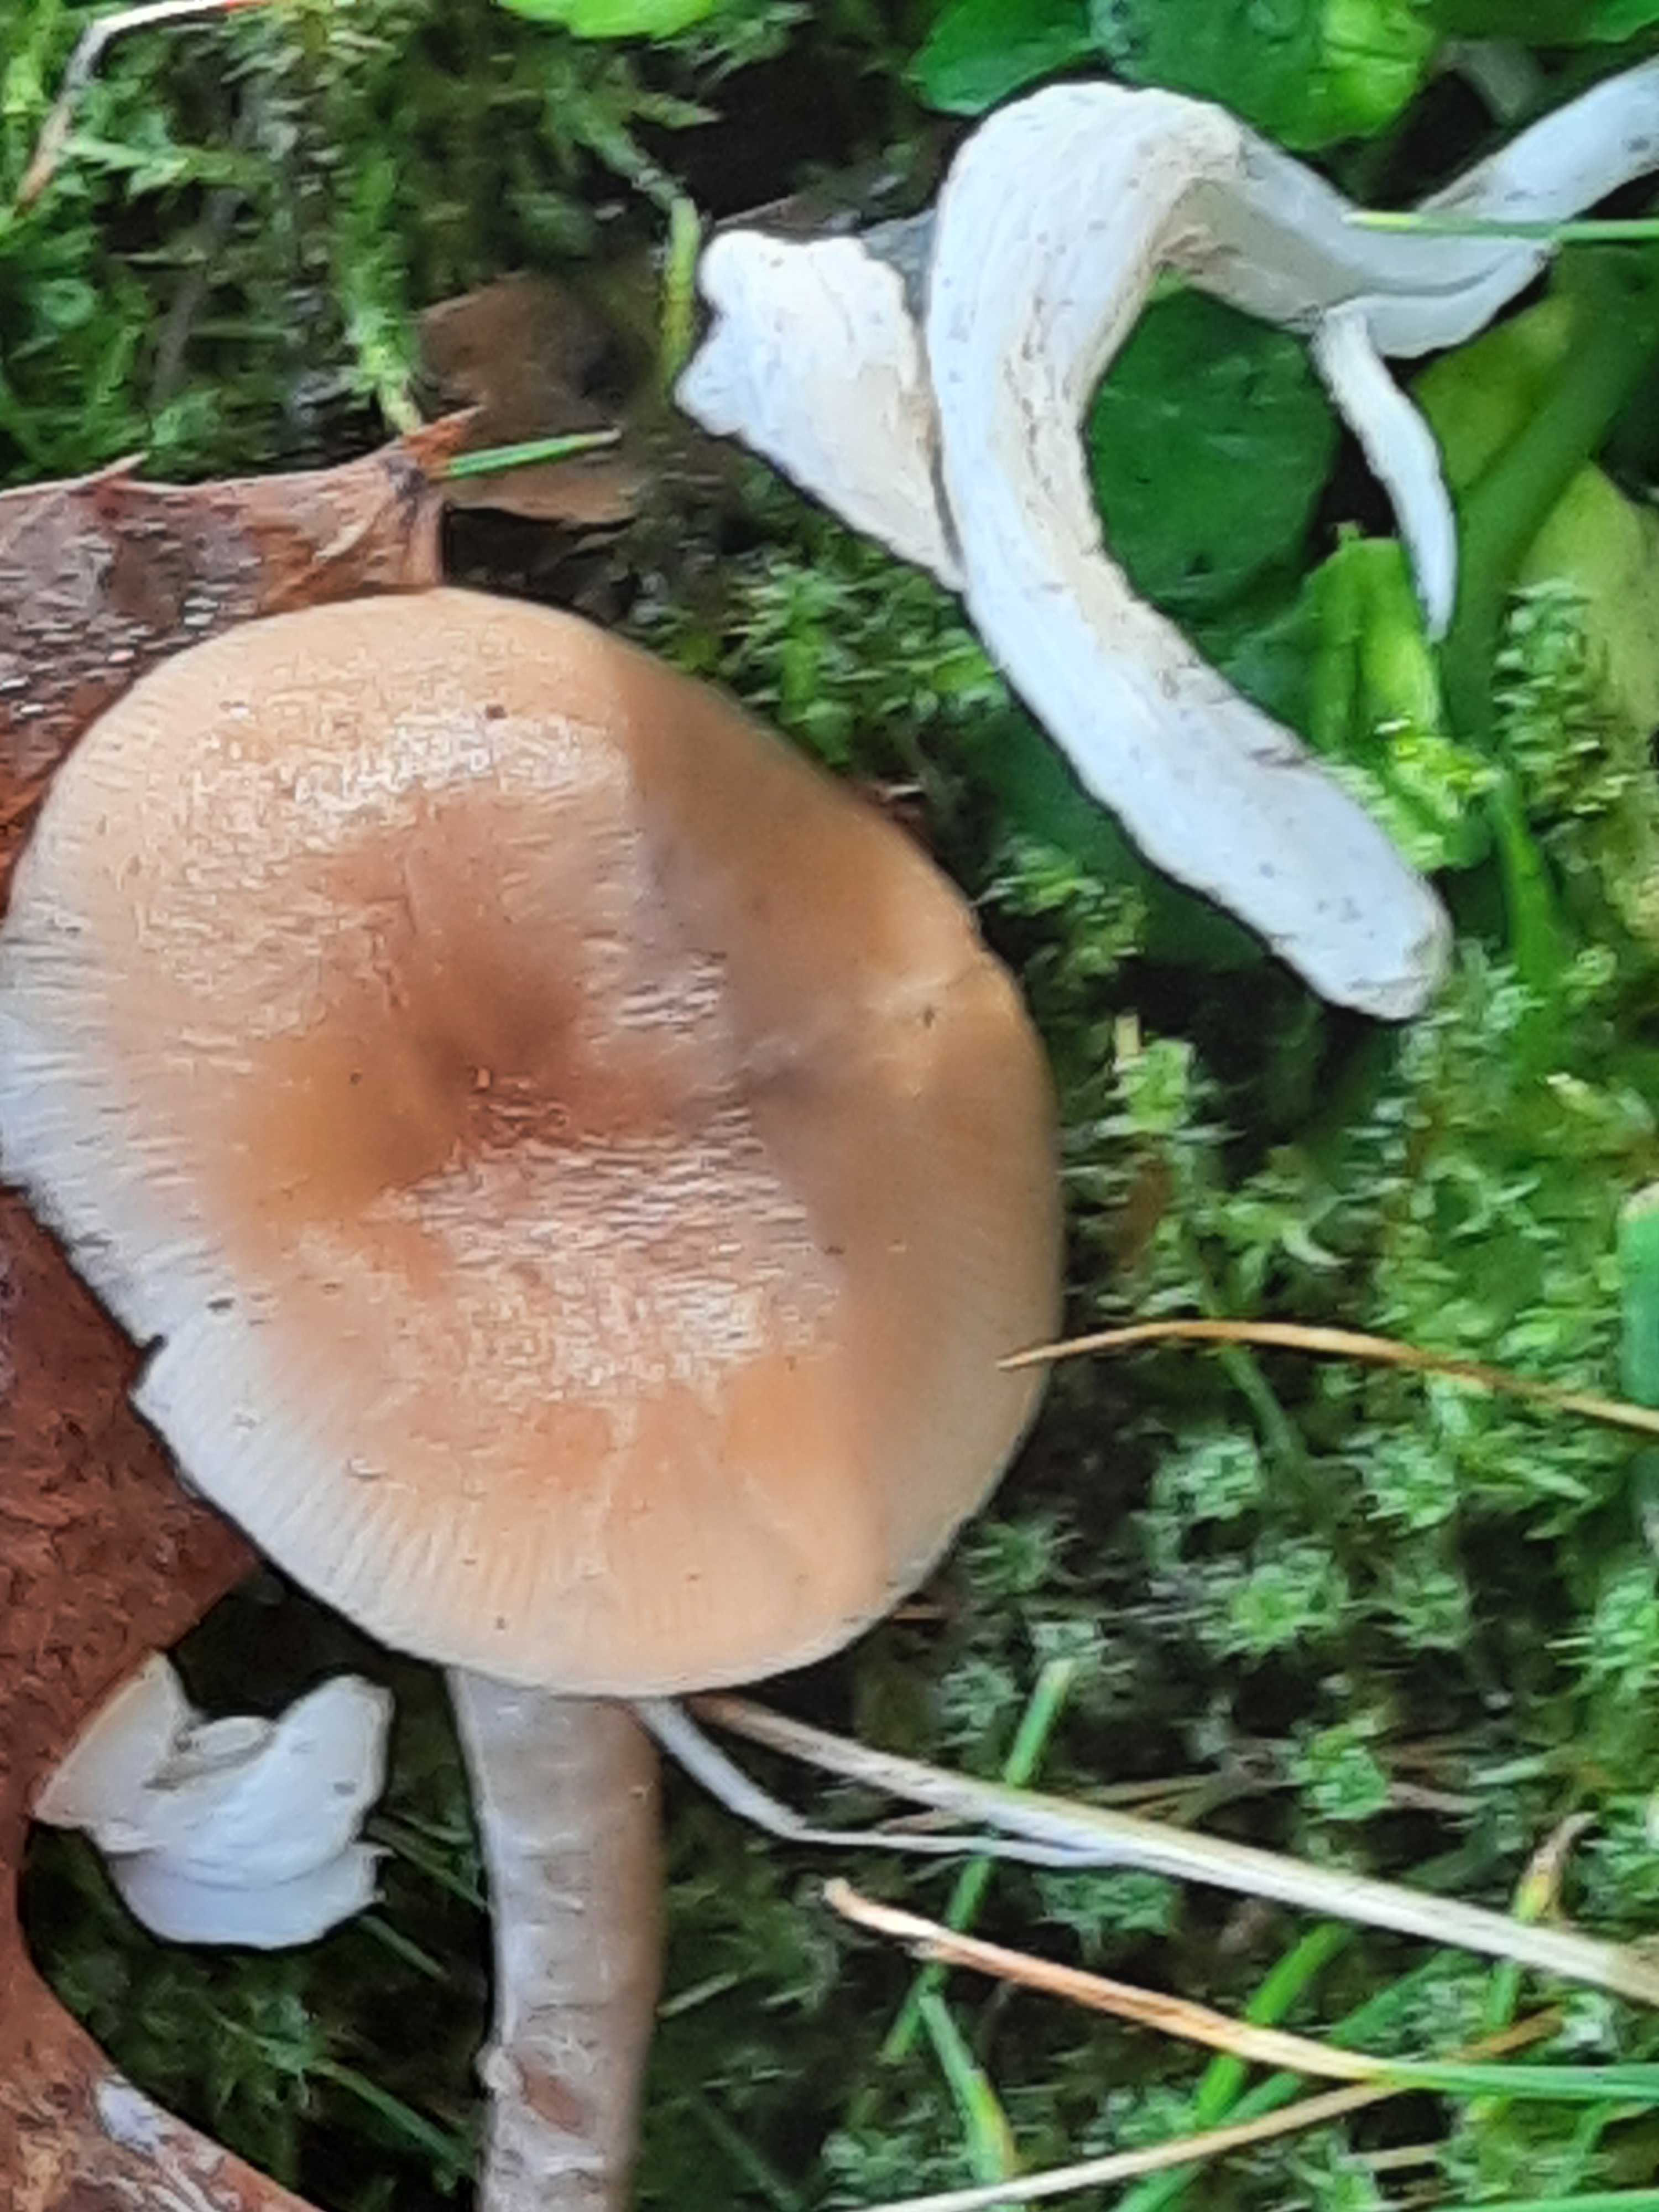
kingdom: Fungi
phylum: Basidiomycota
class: Agaricomycetes
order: Agaricales
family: Tricholomataceae
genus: Clitocybe
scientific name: Clitocybe fragrans
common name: vellugtende tragthat
